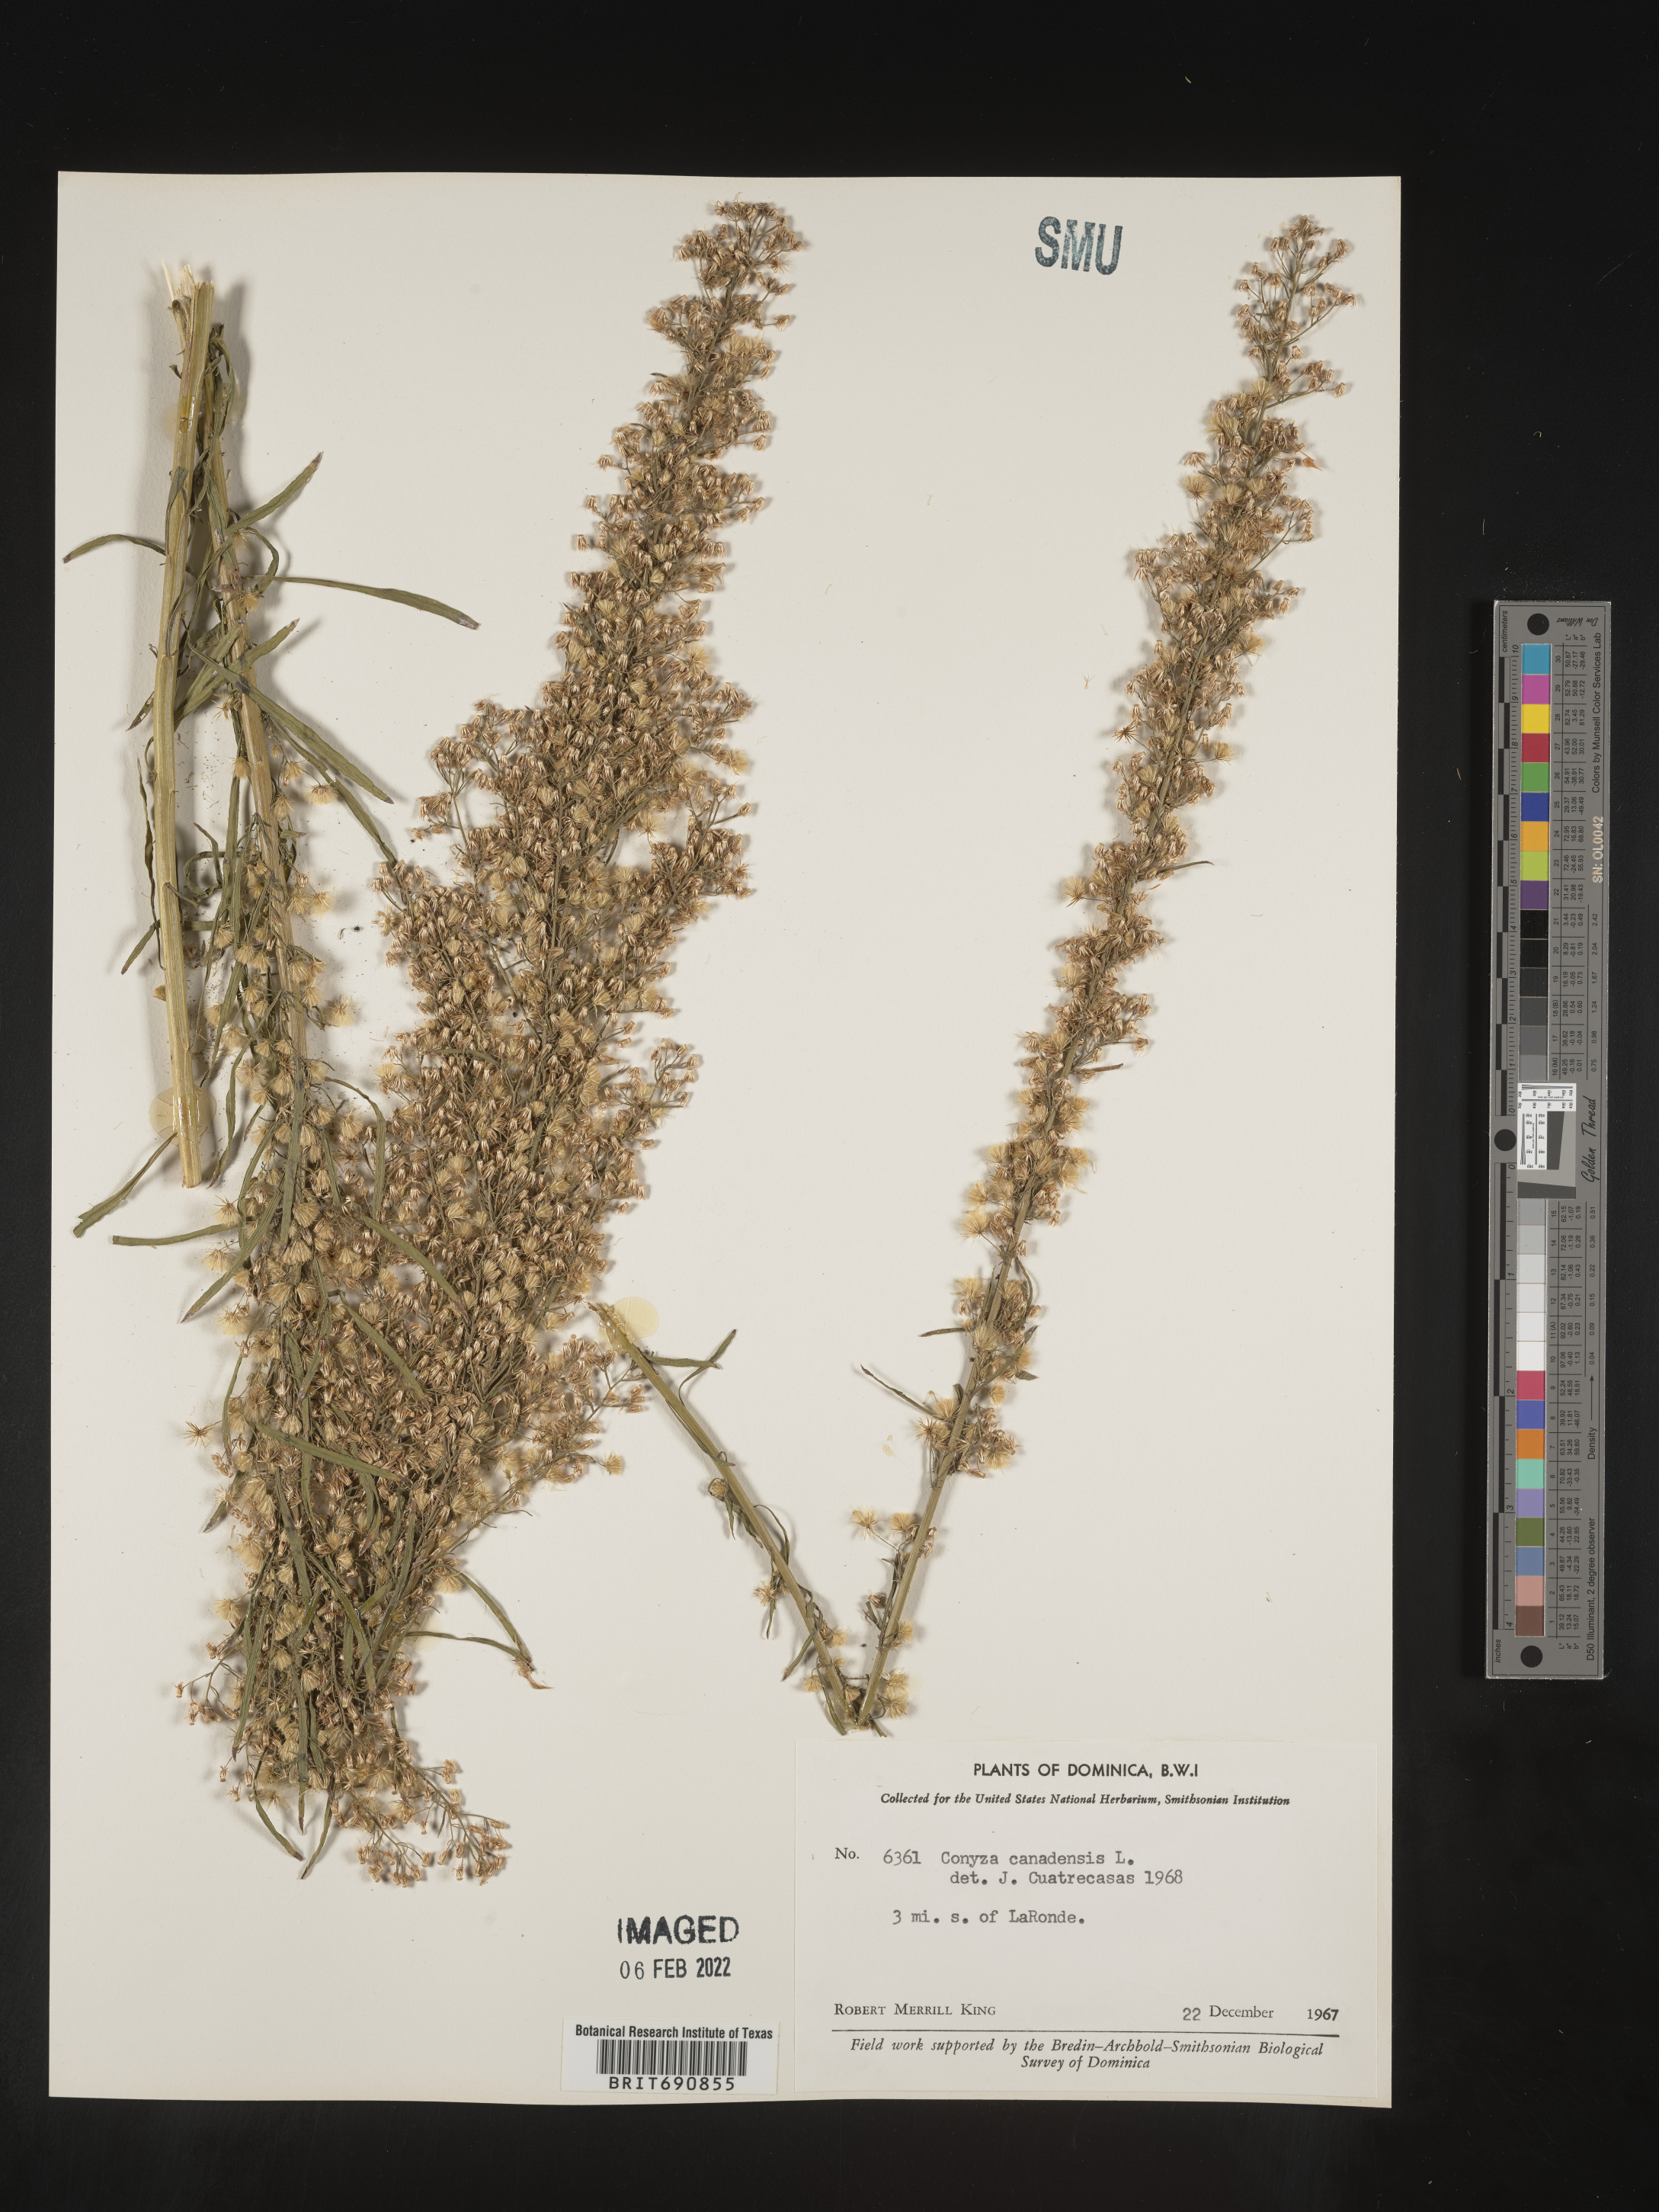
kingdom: Plantae
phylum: Tracheophyta
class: Magnoliopsida
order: Asterales
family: Asteraceae
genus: Conyza
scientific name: Conyza
